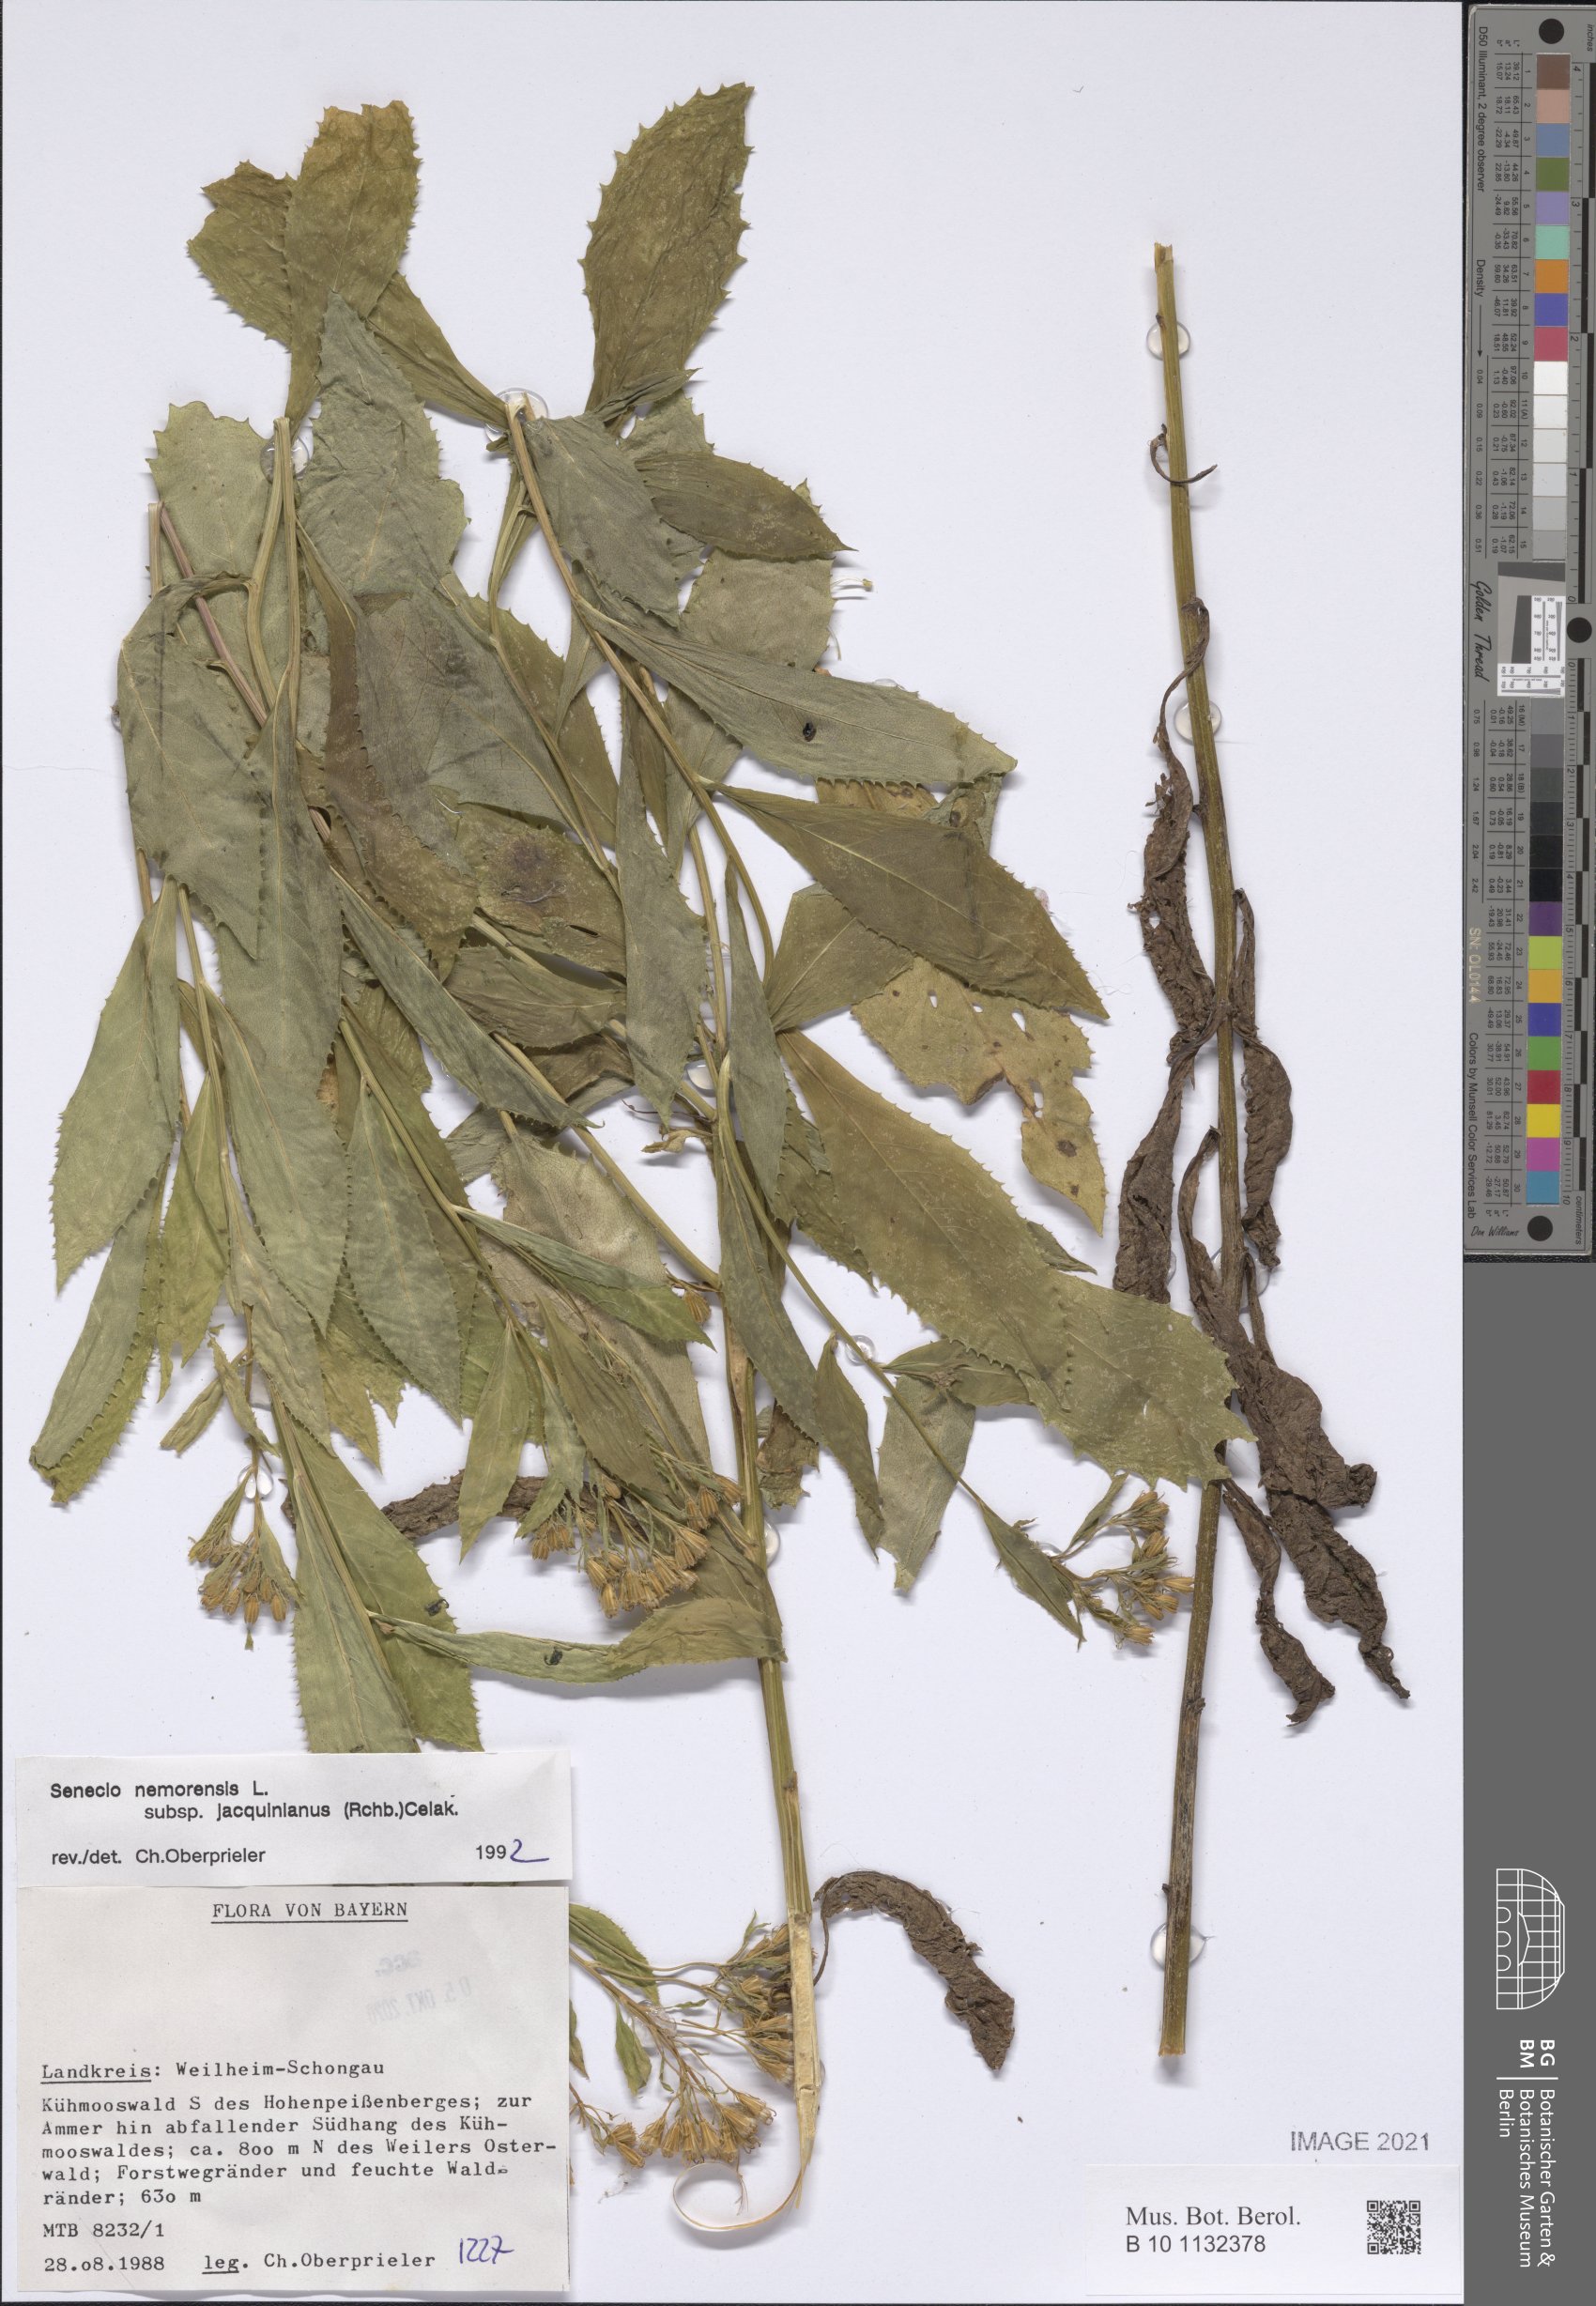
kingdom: Plantae
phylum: Tracheophyta
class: Magnoliopsida
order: Asterales
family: Asteraceae
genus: Senecio
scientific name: Senecio germanicus
